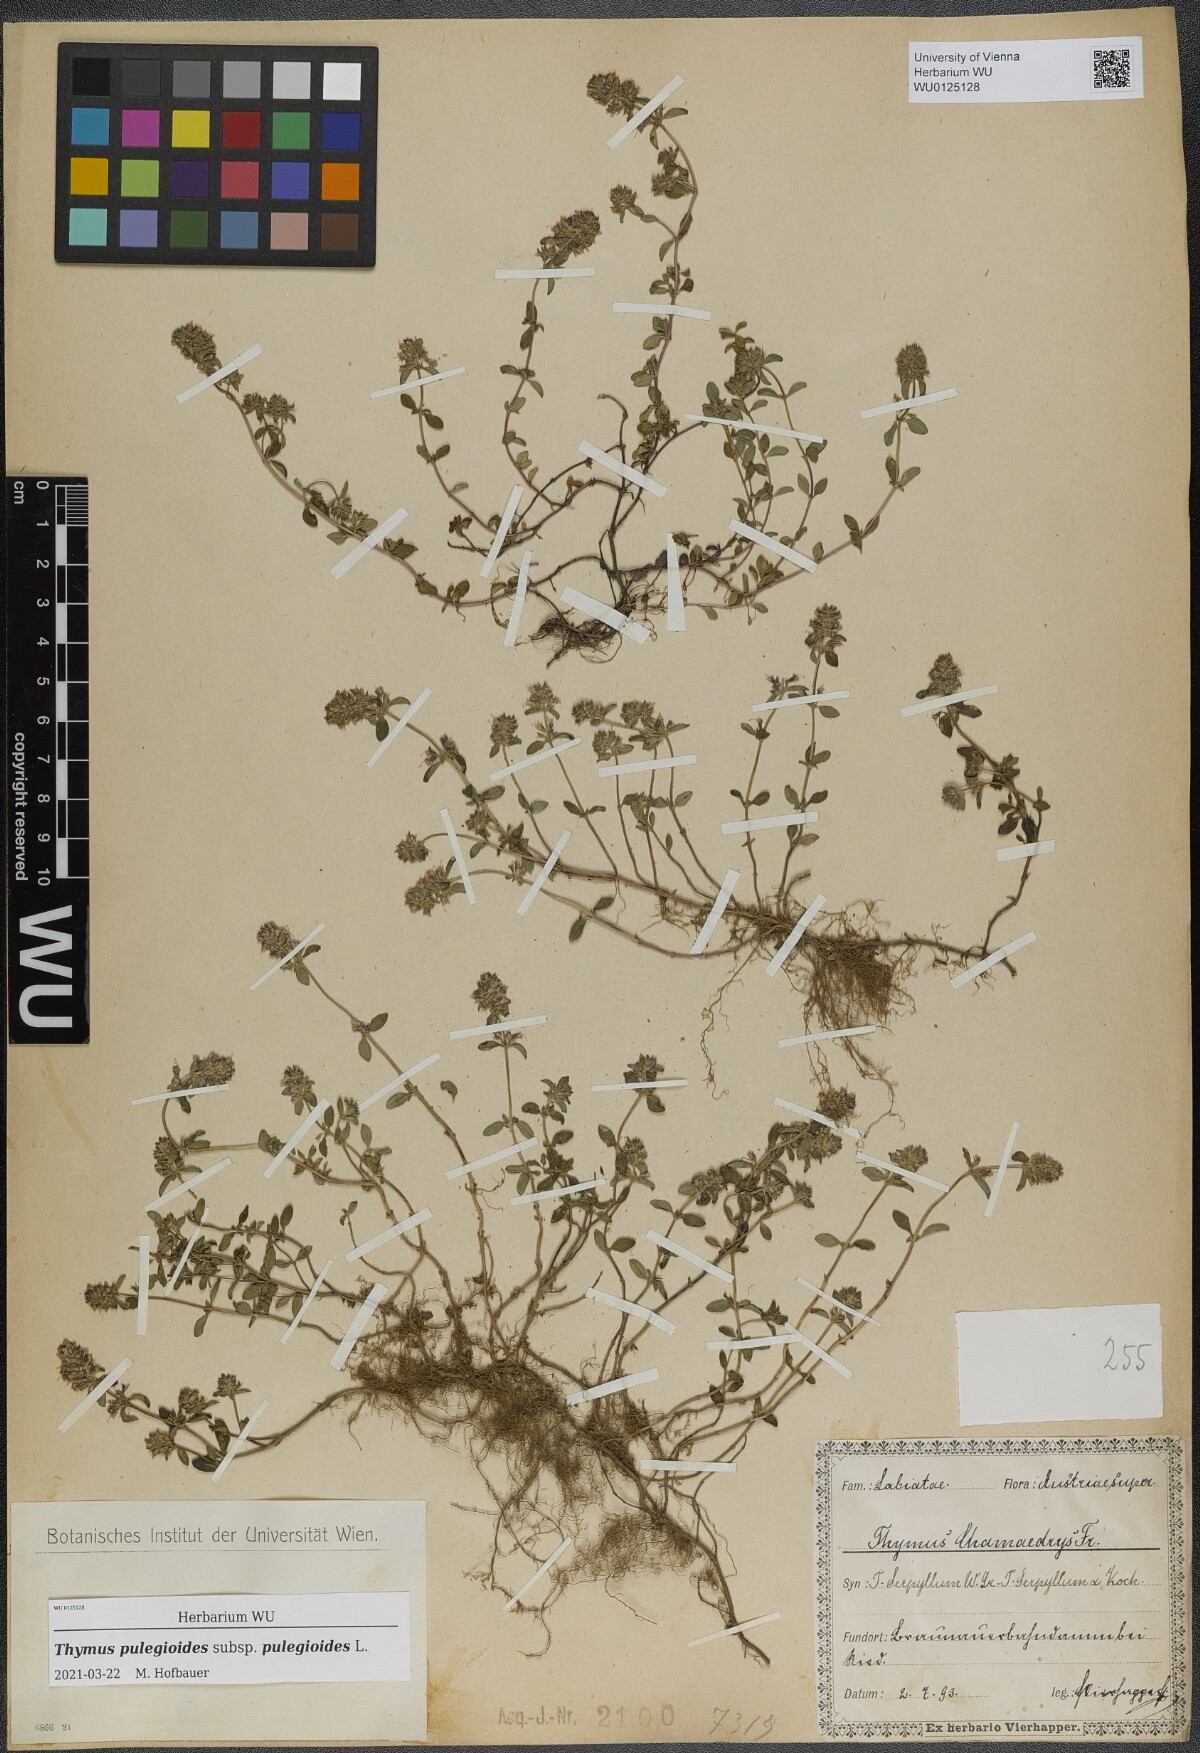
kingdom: Plantae
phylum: Tracheophyta
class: Magnoliopsida
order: Lamiales
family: Lamiaceae
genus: Thymus
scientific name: Thymus pulegioides
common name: Large thyme
